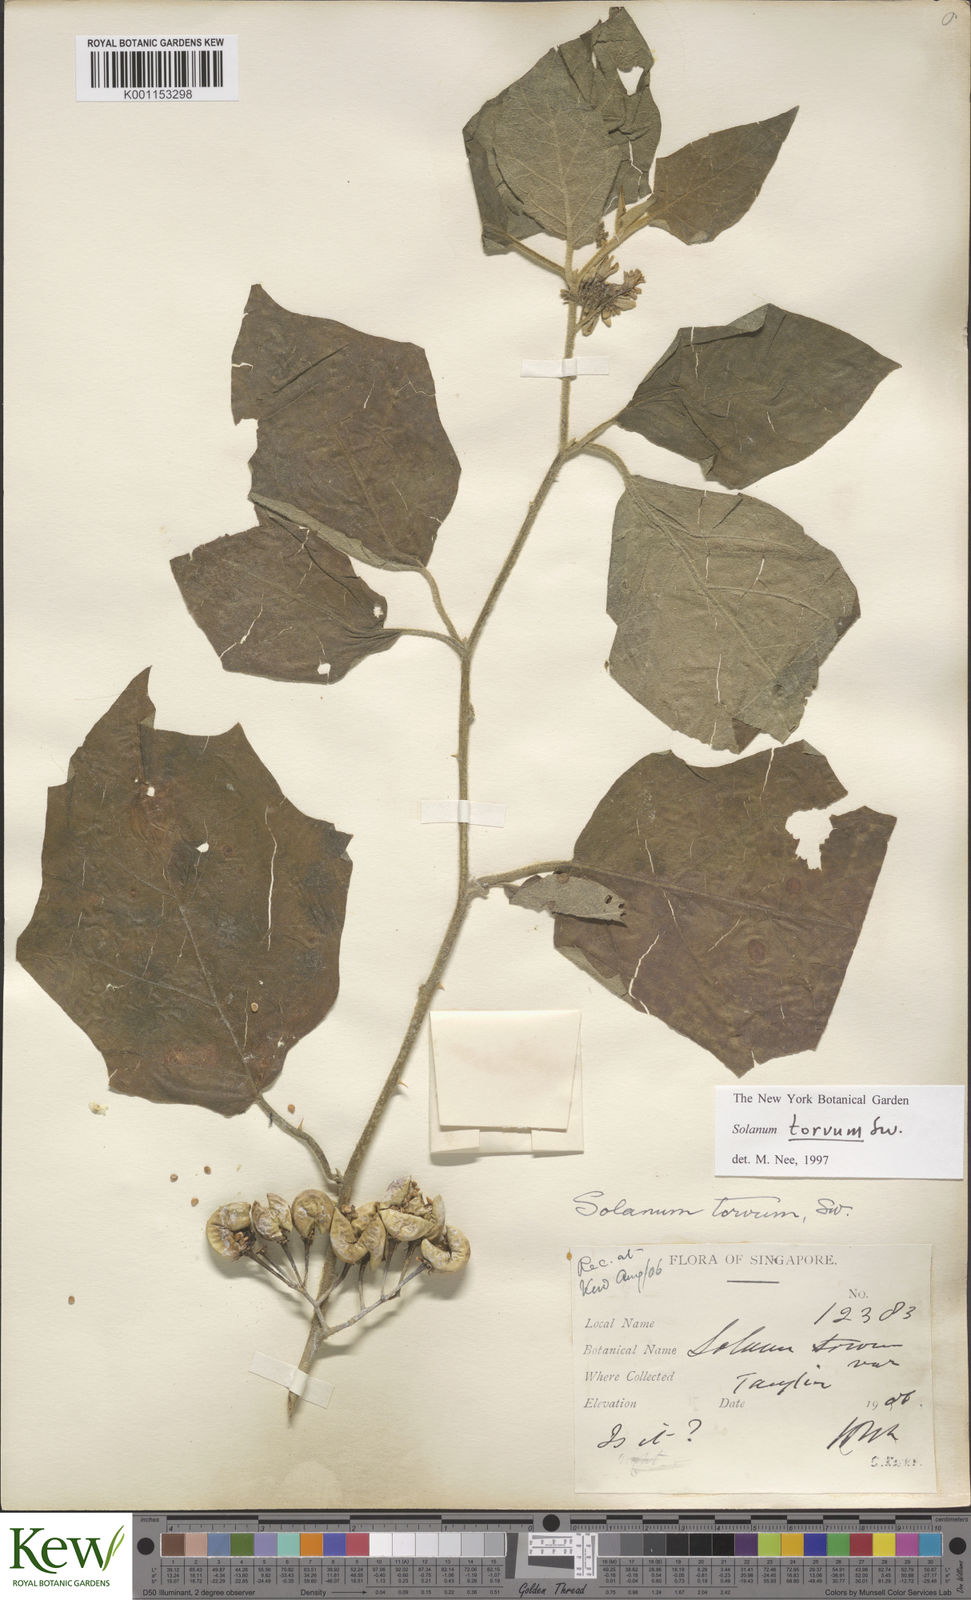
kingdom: Plantae
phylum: Tracheophyta
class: Magnoliopsida
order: Solanales
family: Solanaceae
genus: Solanum
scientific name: Solanum torvum
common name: Turkey berry
